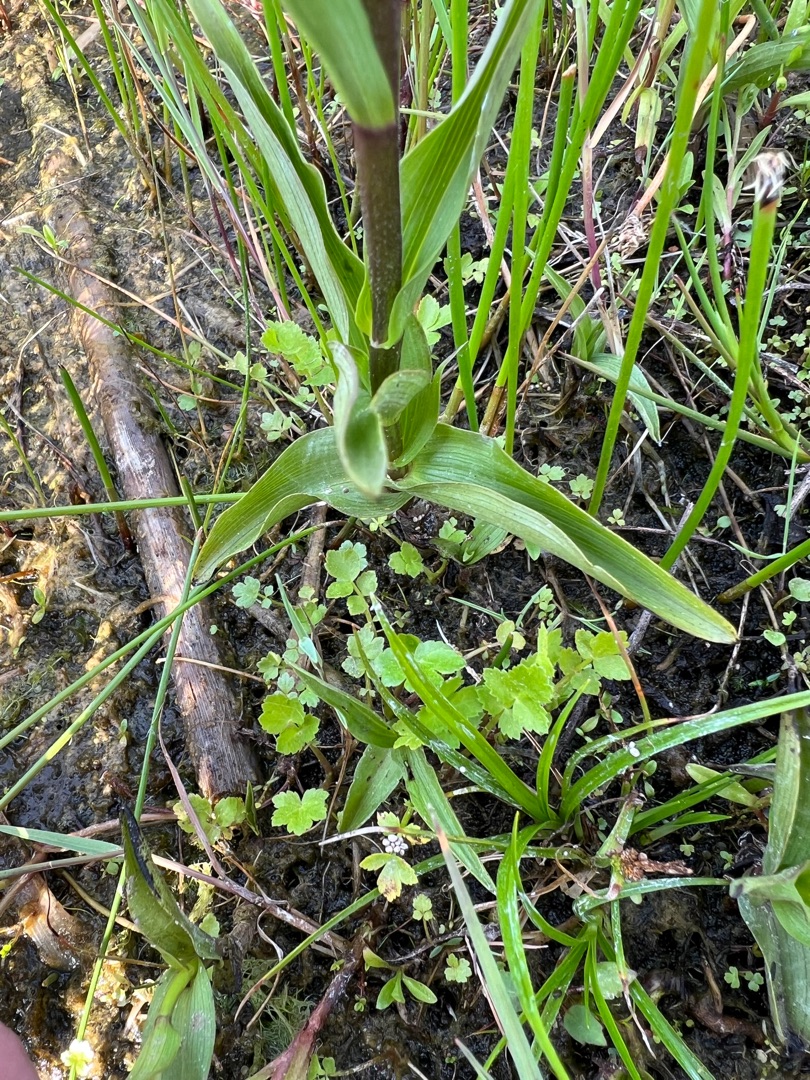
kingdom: Plantae
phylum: Tracheophyta
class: Liliopsida
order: Asparagales
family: Orchidaceae
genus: Epipactis
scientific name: Epipactis palustris
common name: Sump-hullæbe
